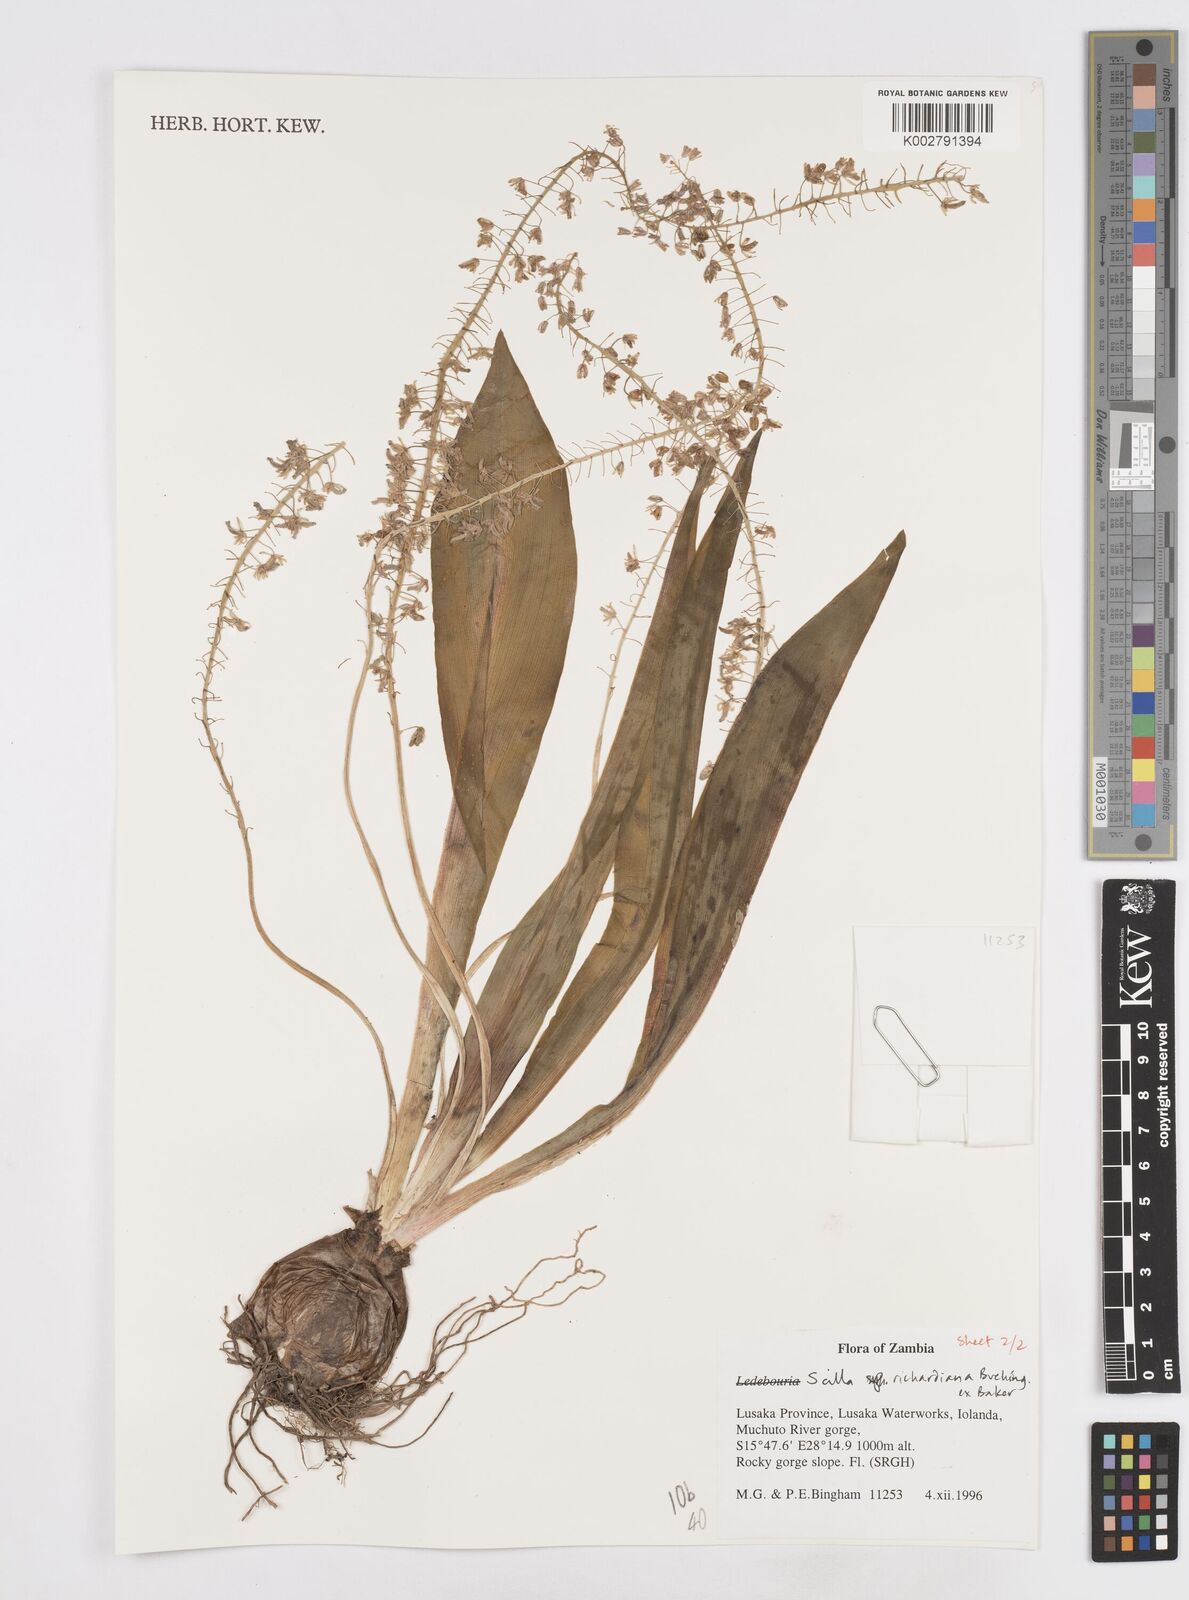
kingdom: Plantae
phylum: Tracheophyta
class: Liliopsida
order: Asparagales
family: Asparagaceae
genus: Ledebouria
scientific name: Ledebouria revoluta
